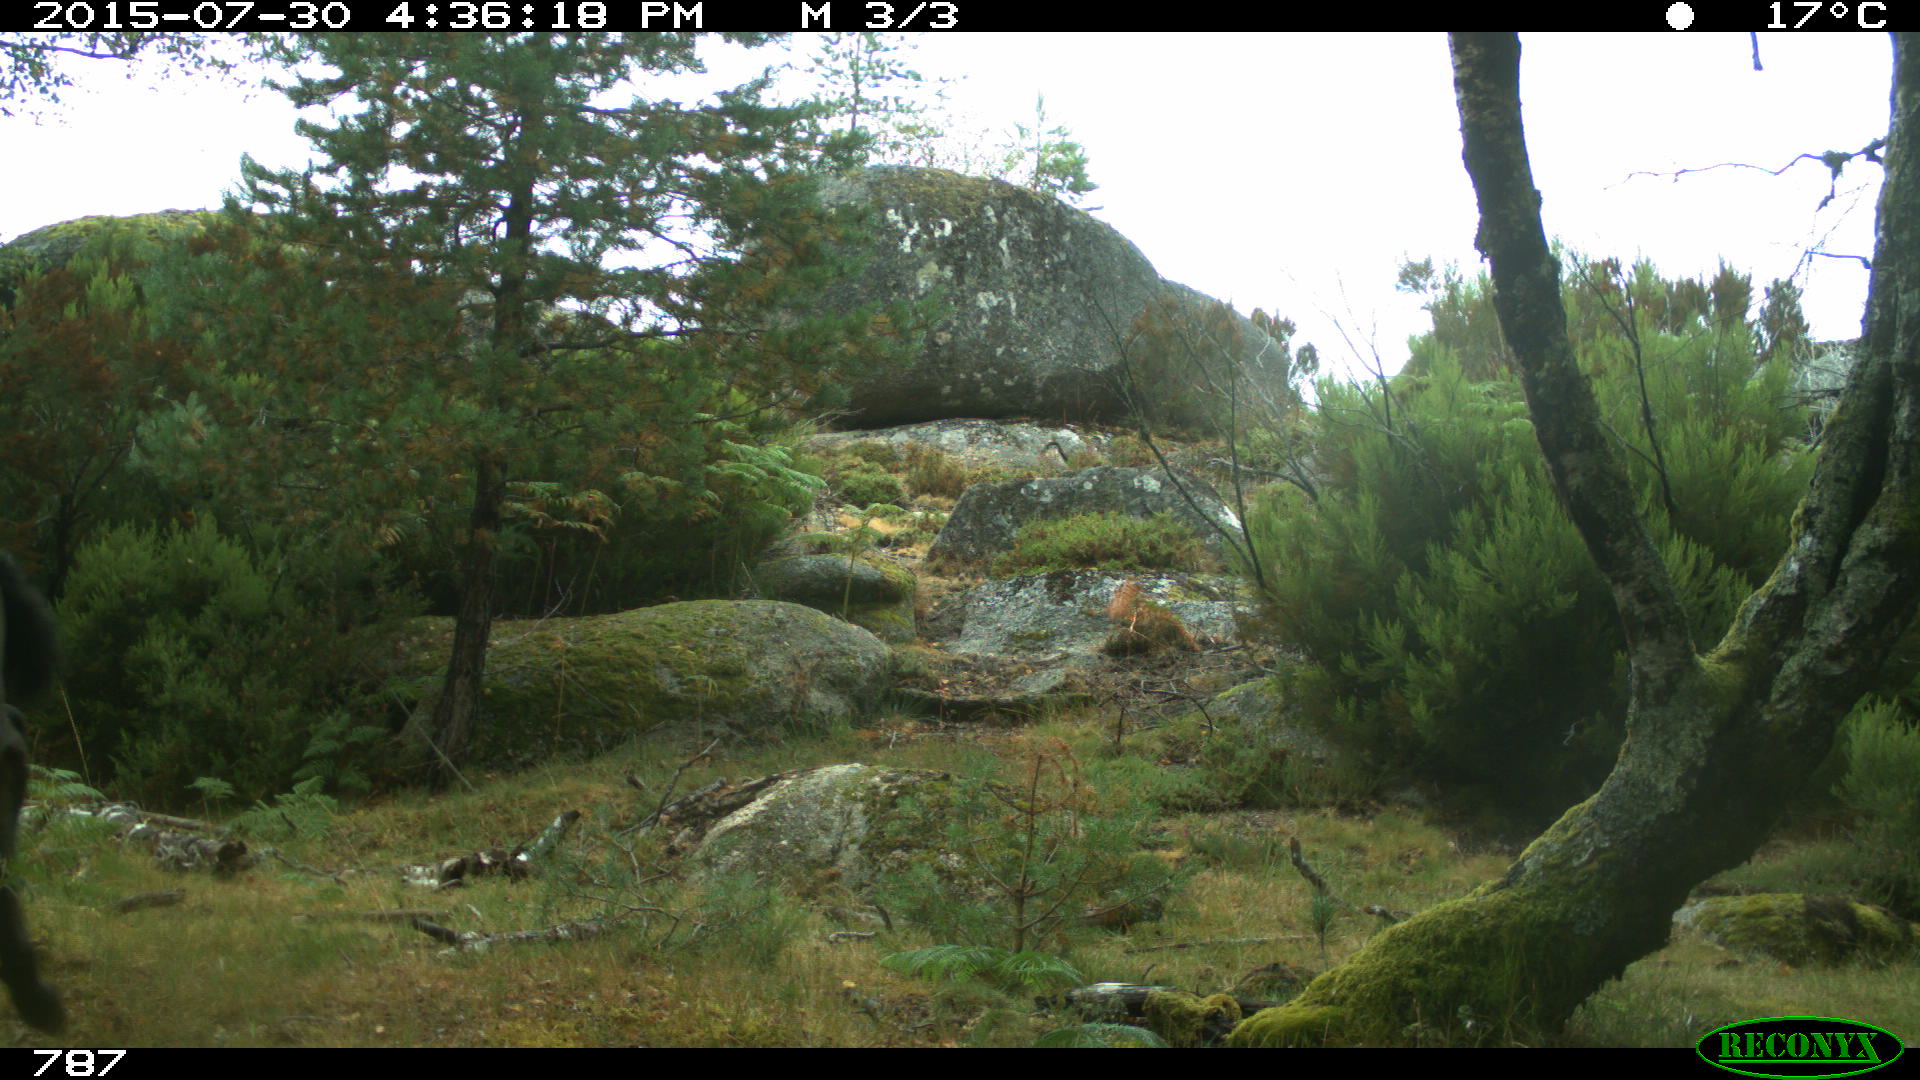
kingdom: Animalia
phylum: Chordata
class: Mammalia
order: Perissodactyla
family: Equidae
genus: Equus
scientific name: Equus caballus
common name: Horse
